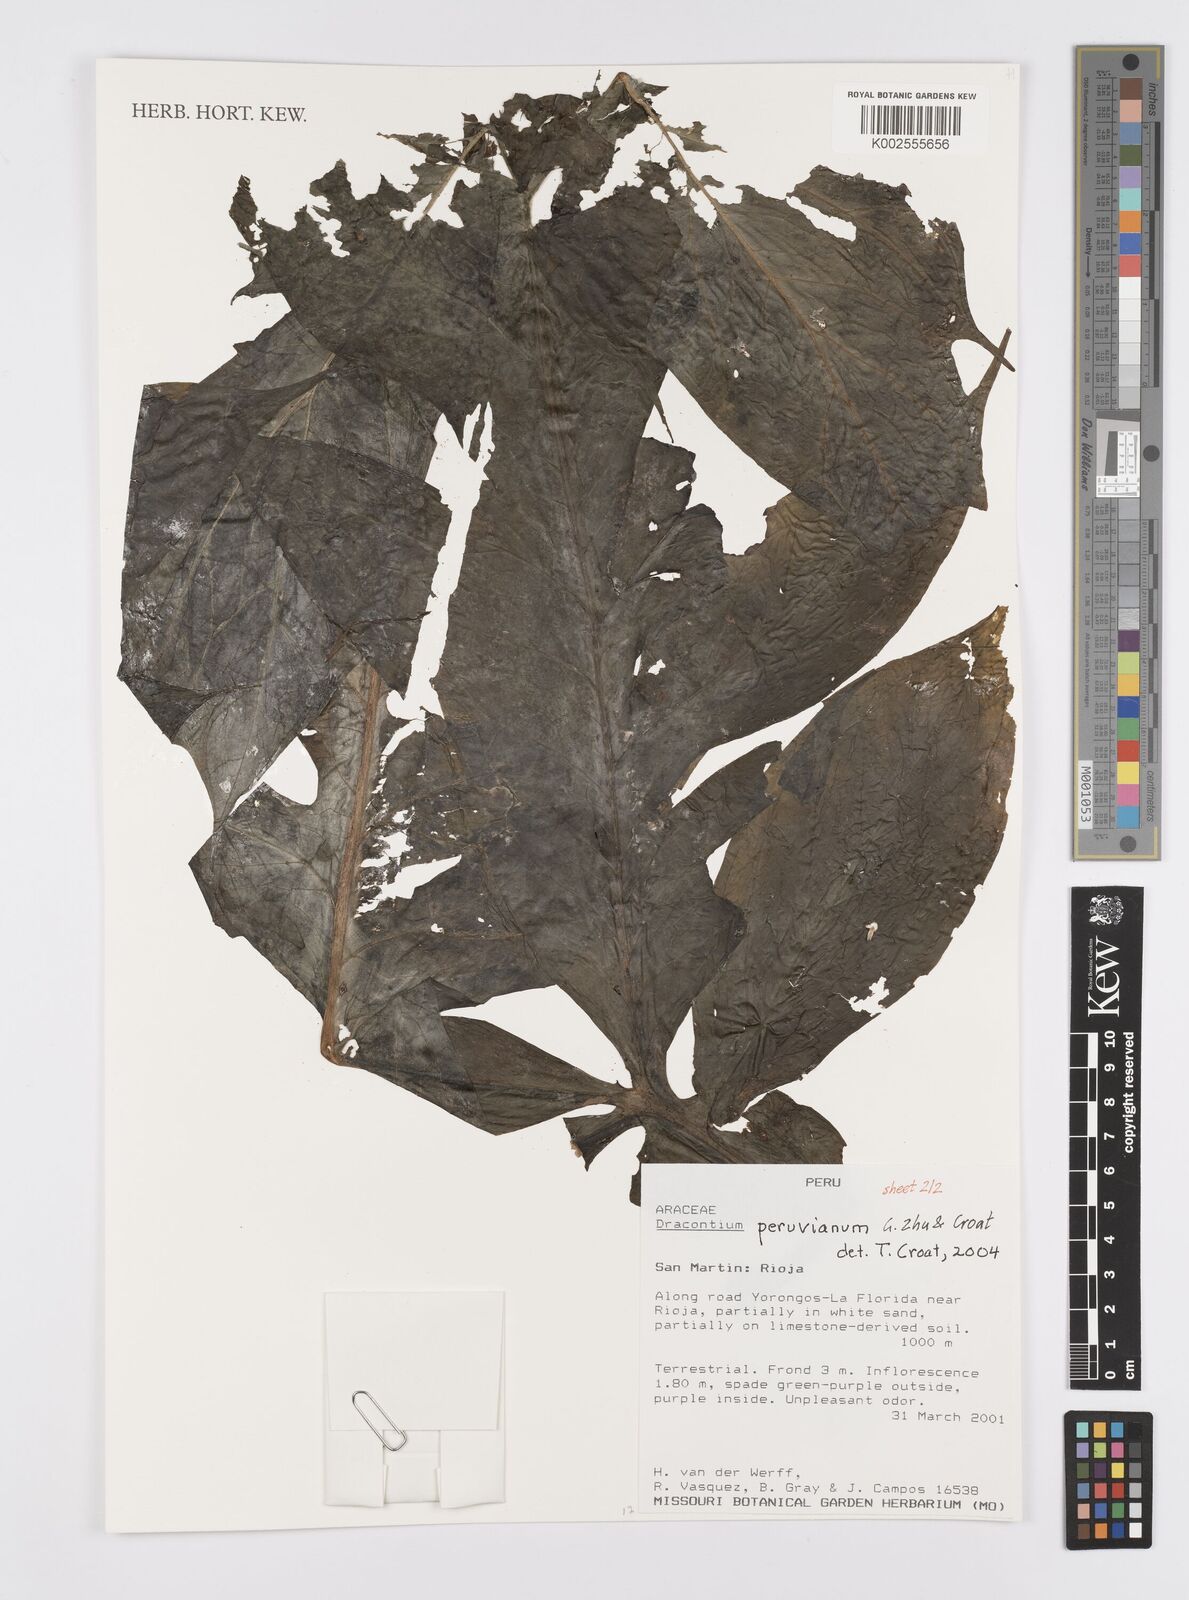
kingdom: Plantae
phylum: Tracheophyta
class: Liliopsida
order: Alismatales
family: Araceae
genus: Dracontium
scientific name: Dracontium peruvianum
